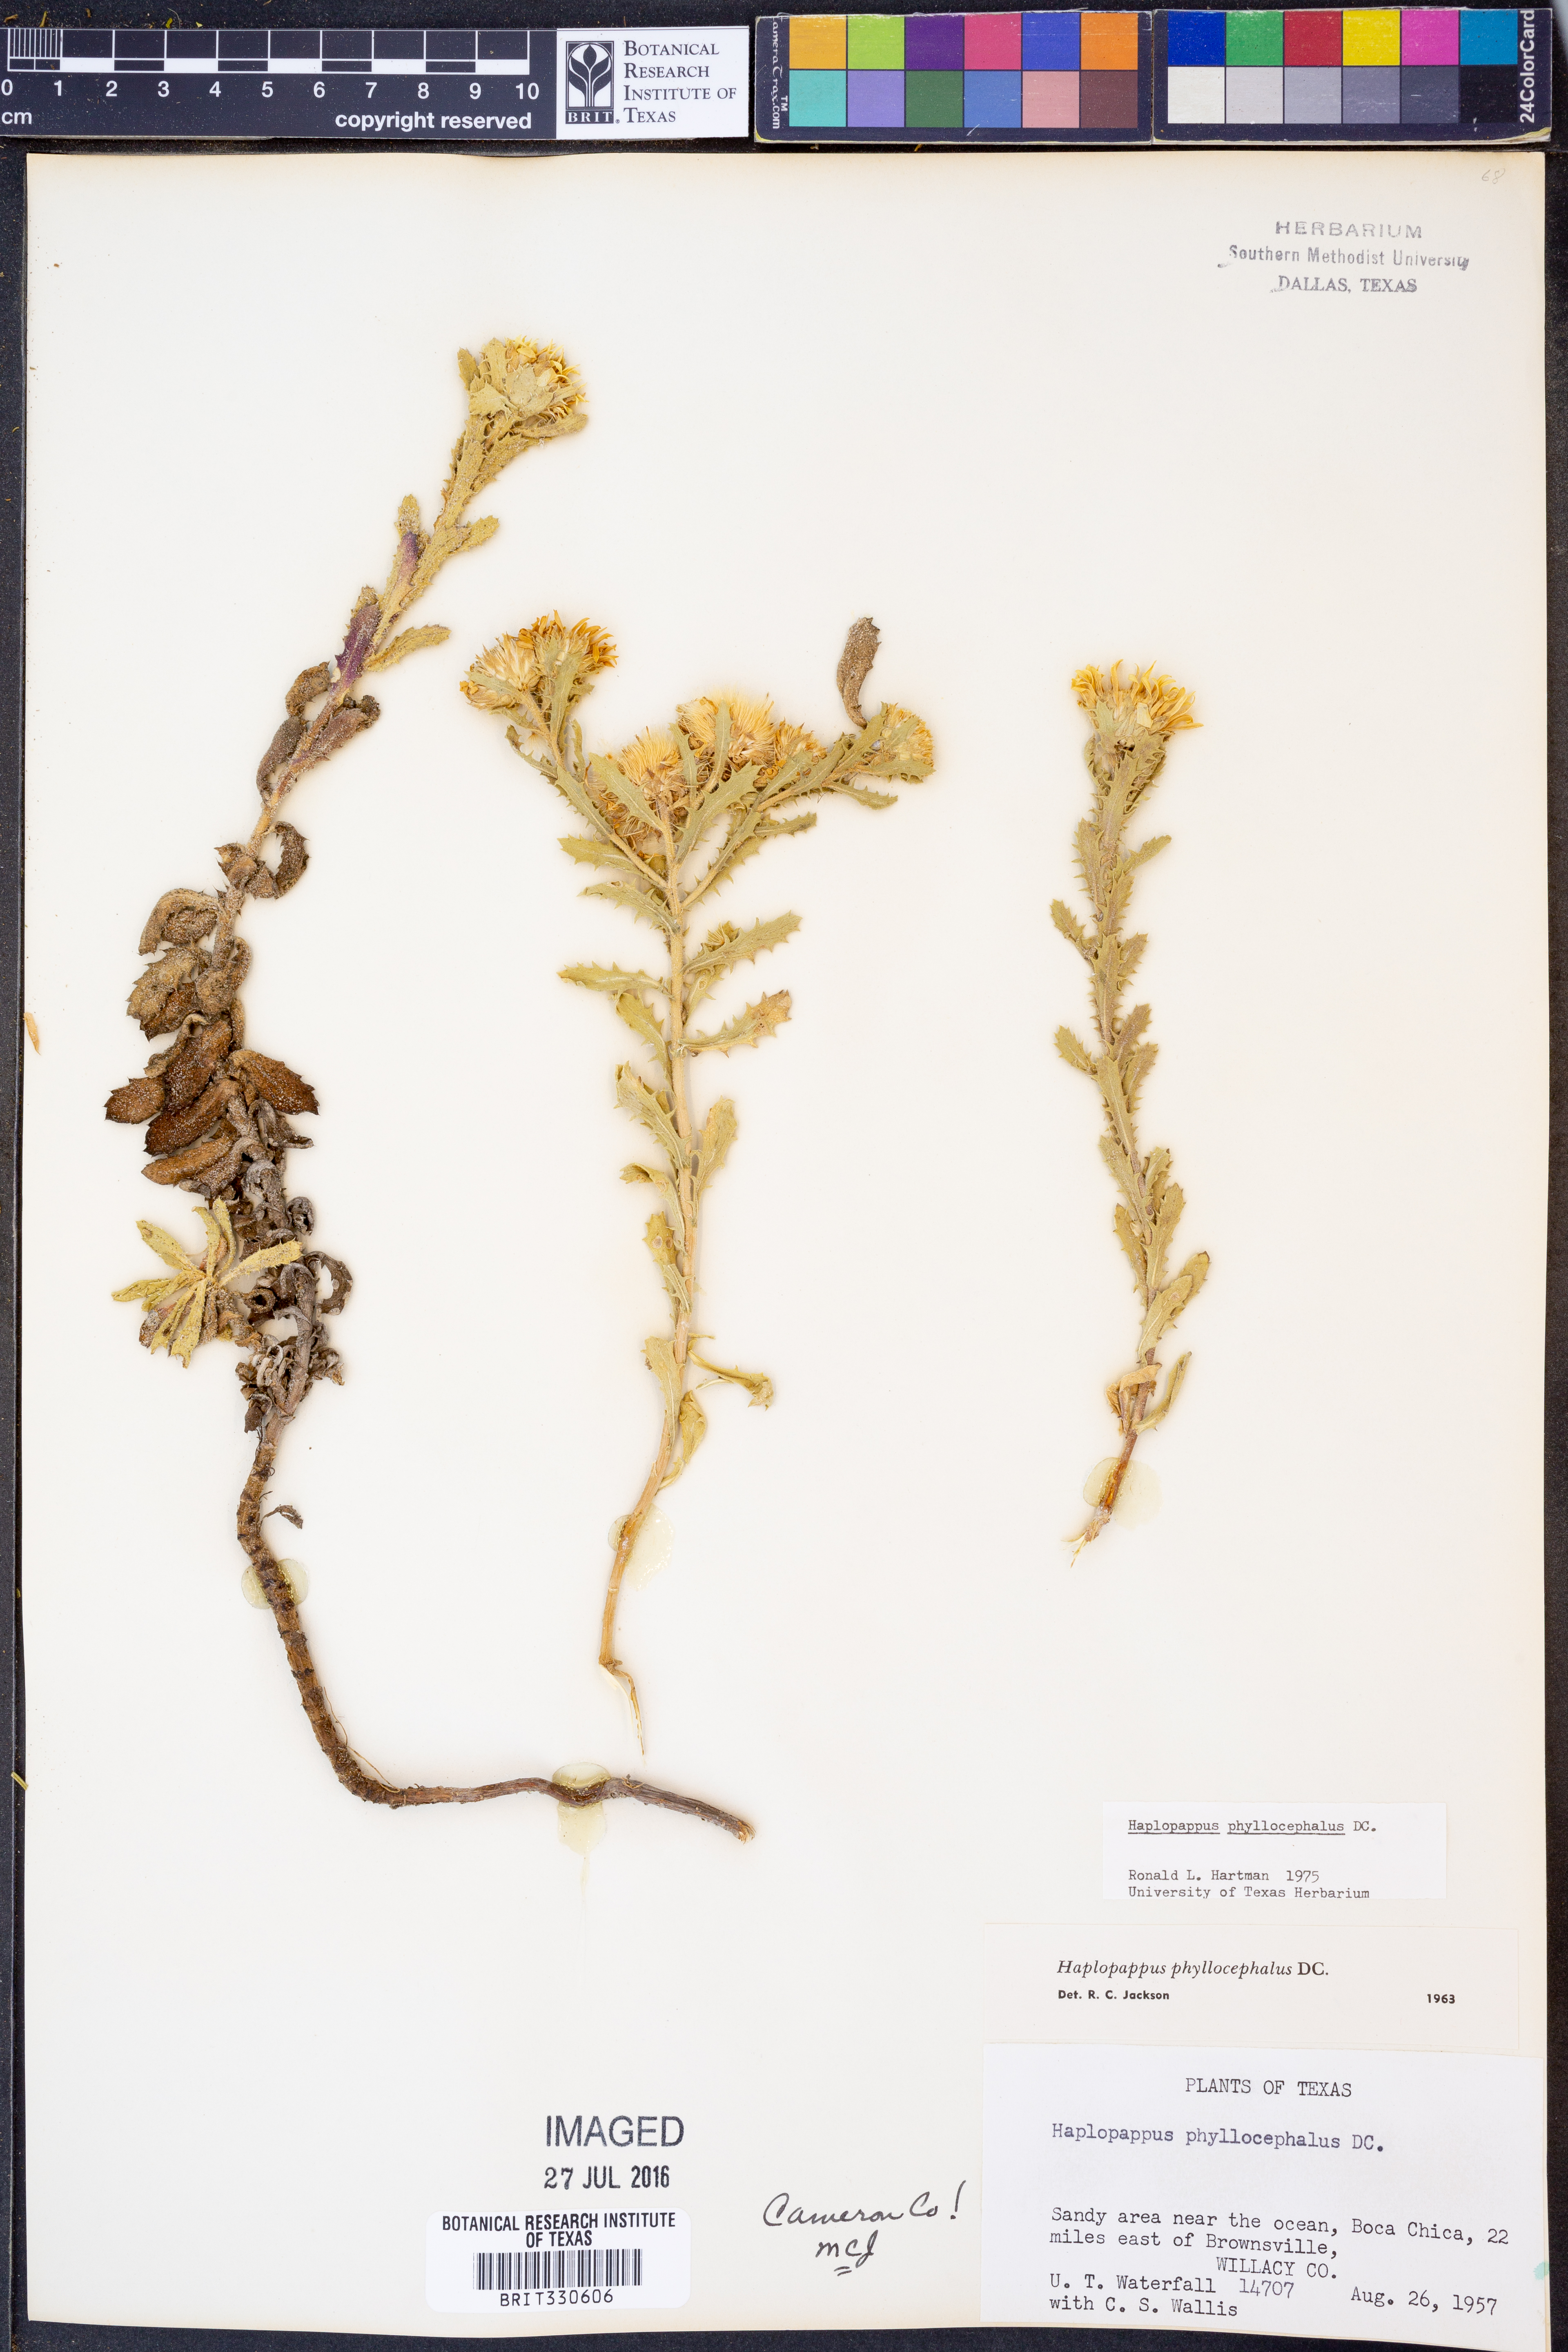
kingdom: Plantae
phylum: Tracheophyta
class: Magnoliopsida
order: Asterales
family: Asteraceae
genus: Rayjacksonia
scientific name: Rayjacksonia phyllocephala
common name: Gulf coast camphor daisy
